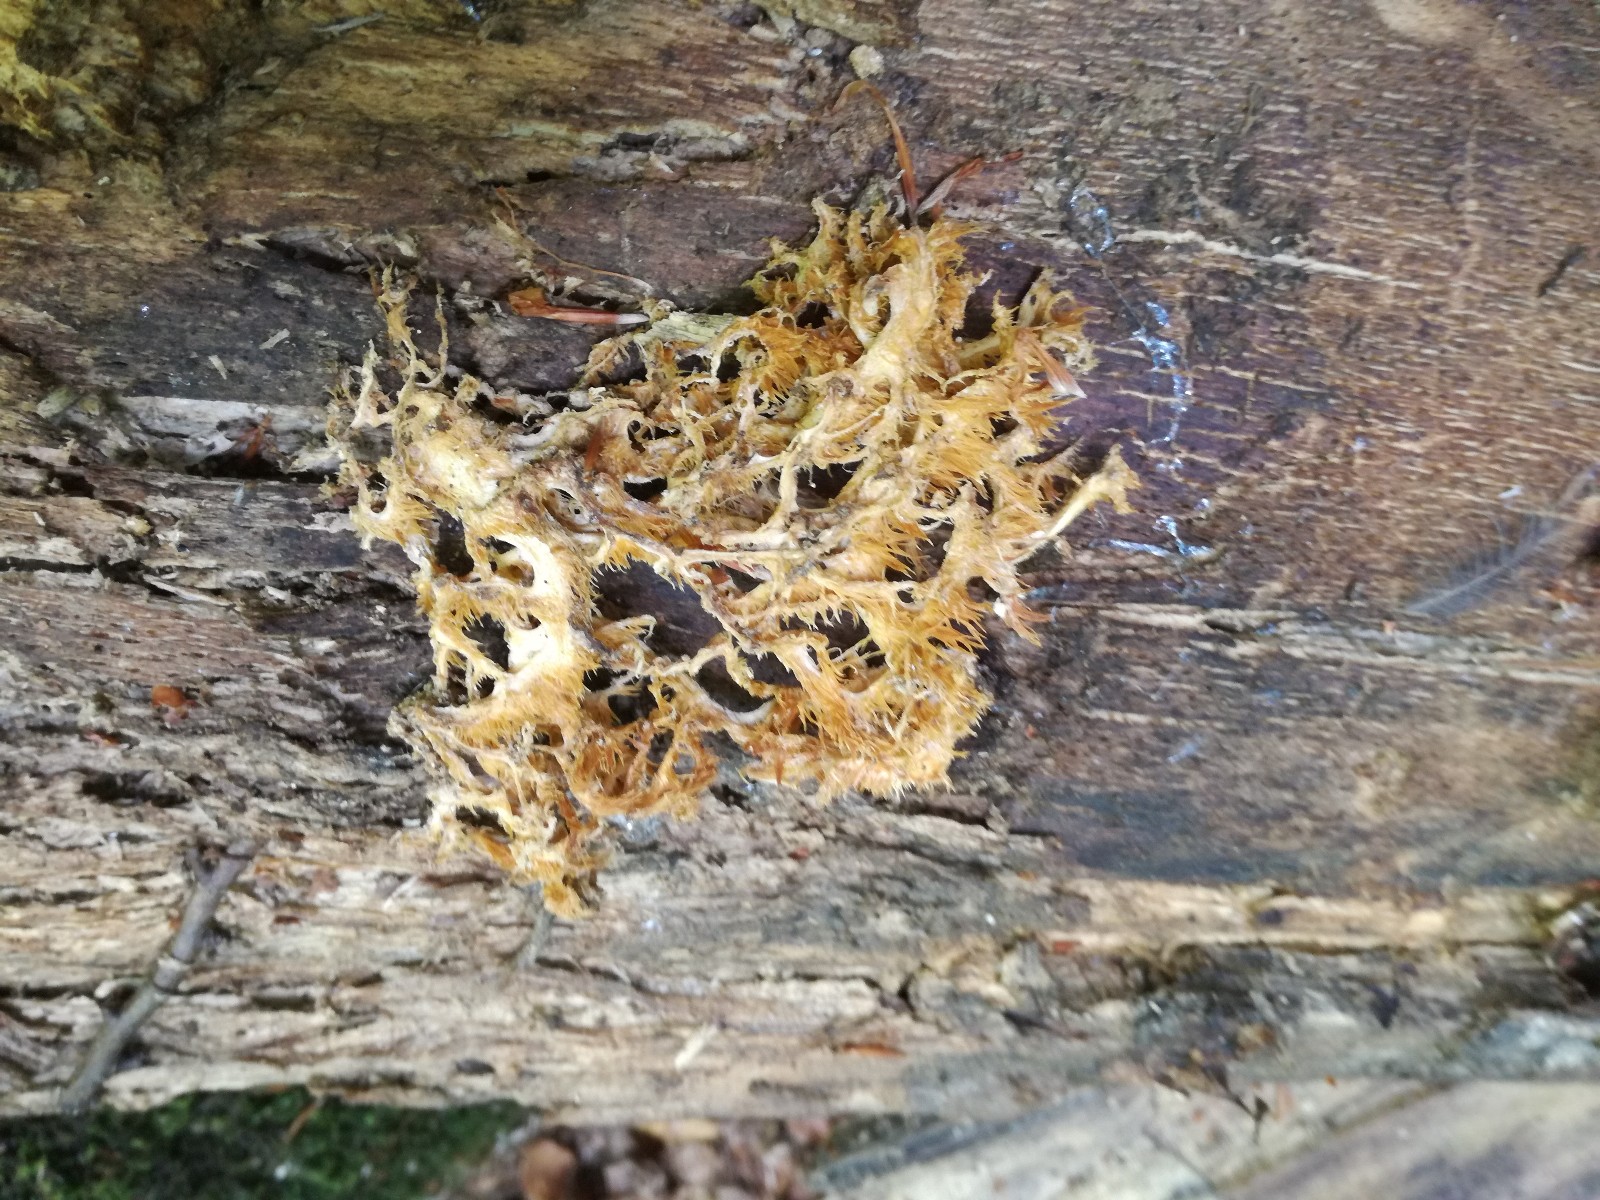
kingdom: Fungi
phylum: Basidiomycota
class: Agaricomycetes
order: Russulales
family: Hericiaceae
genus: Hericium
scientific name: Hericium coralloides
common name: koralpigsvamp
